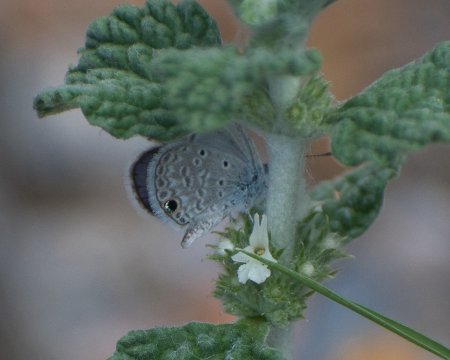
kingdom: Animalia
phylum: Arthropoda
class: Insecta
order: Lepidoptera
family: Lycaenidae
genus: Hemiargus
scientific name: Hemiargus ceraunus
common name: Ceraunus Blue
